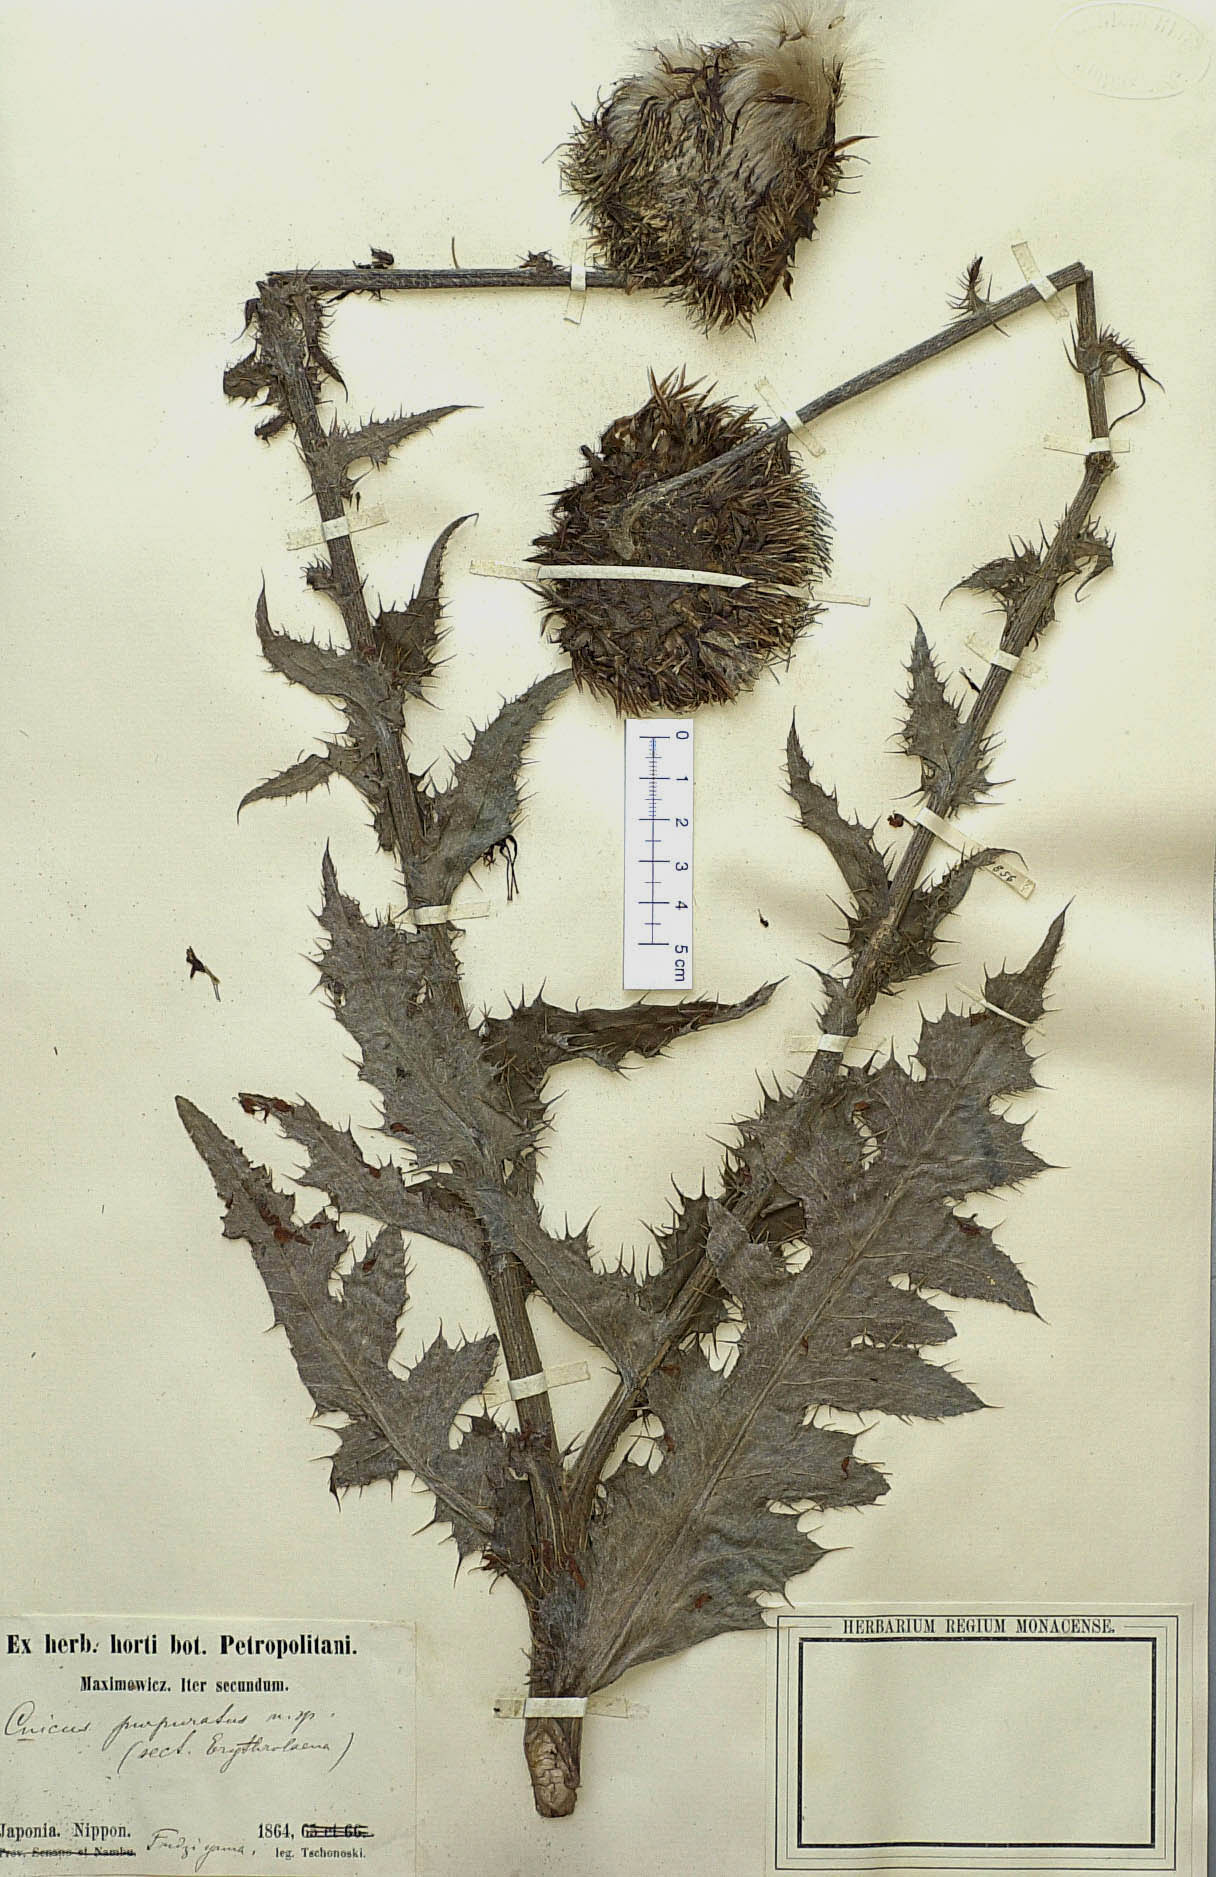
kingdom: Plantae
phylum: Tracheophyta
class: Magnoliopsida
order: Asterales
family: Asteraceae
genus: Cirsium
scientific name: Cirsium purpuratum
